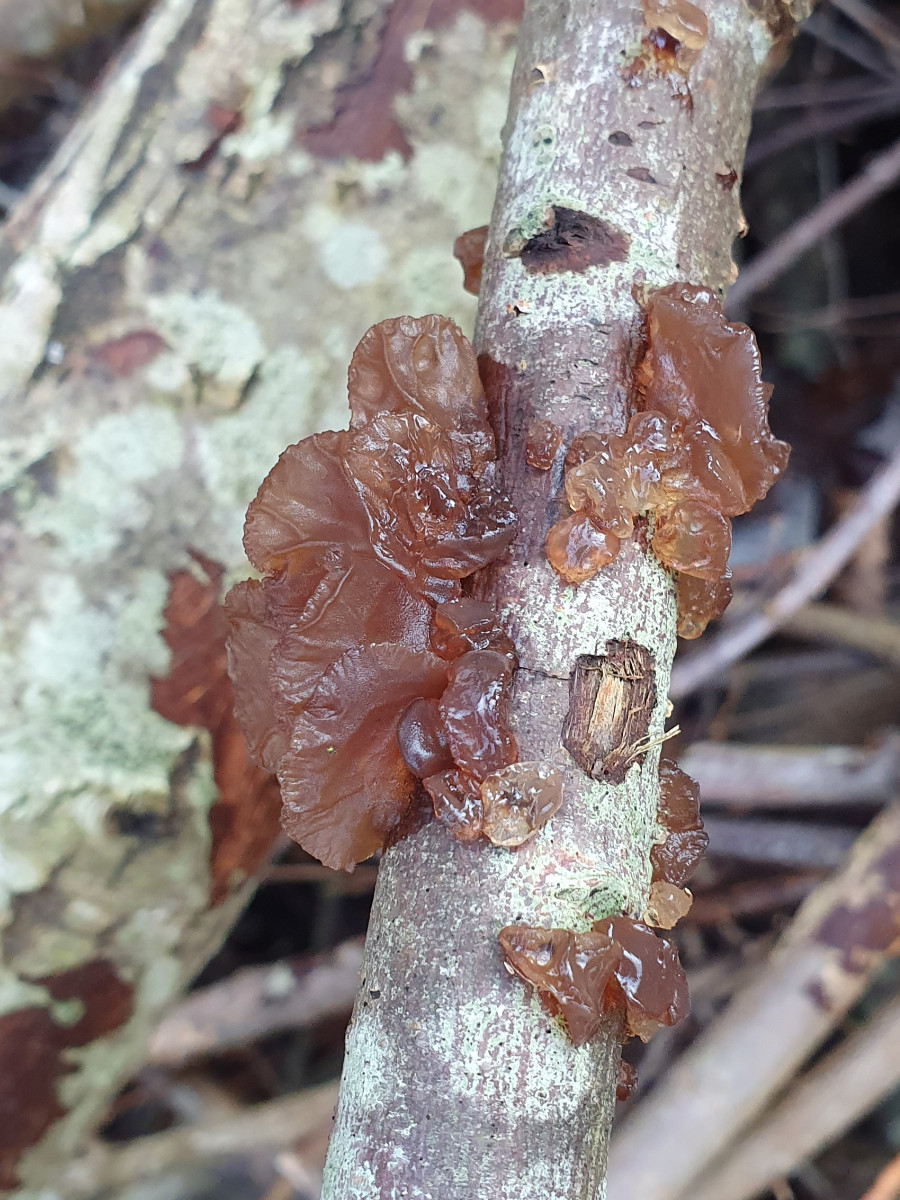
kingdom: Fungi
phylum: Basidiomycota
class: Agaricomycetes
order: Auriculariales
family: Auriculariaceae
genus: Exidia
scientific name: Exidia recisa
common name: pile-bævretop
